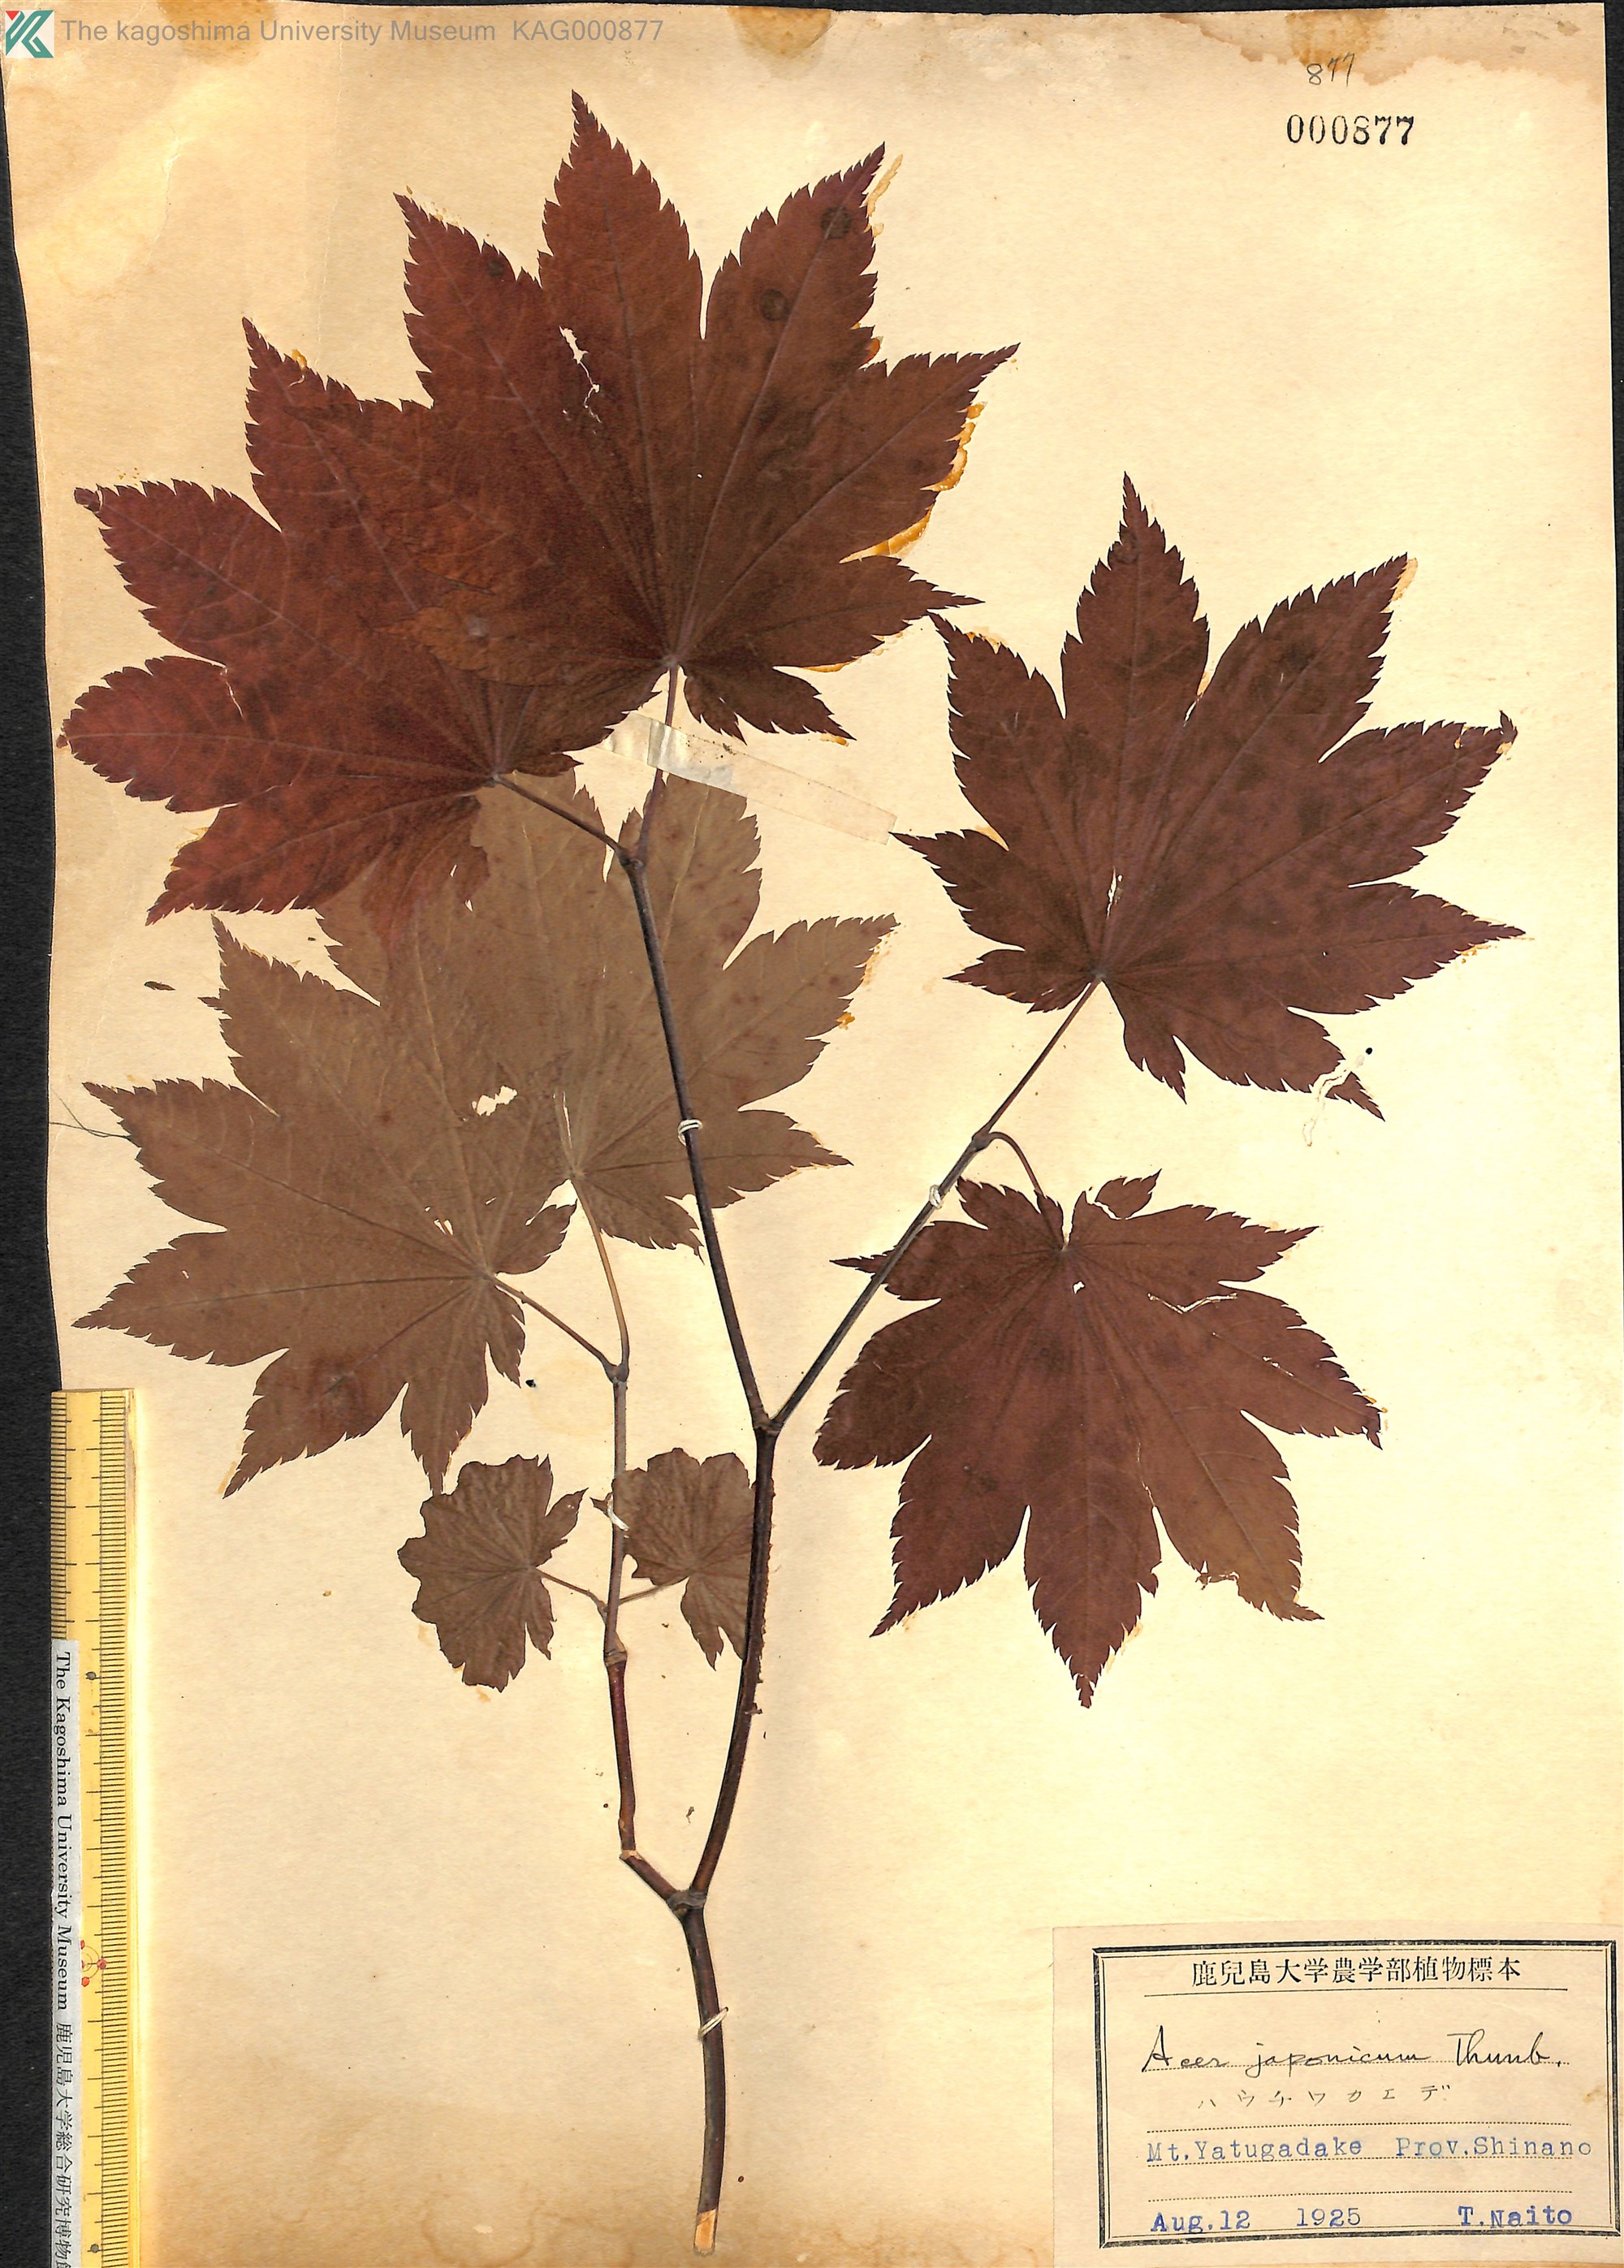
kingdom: Plantae
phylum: Tracheophyta
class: Magnoliopsida
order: Sapindales
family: Sapindaceae
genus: Acer
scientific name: Acer japonicum
